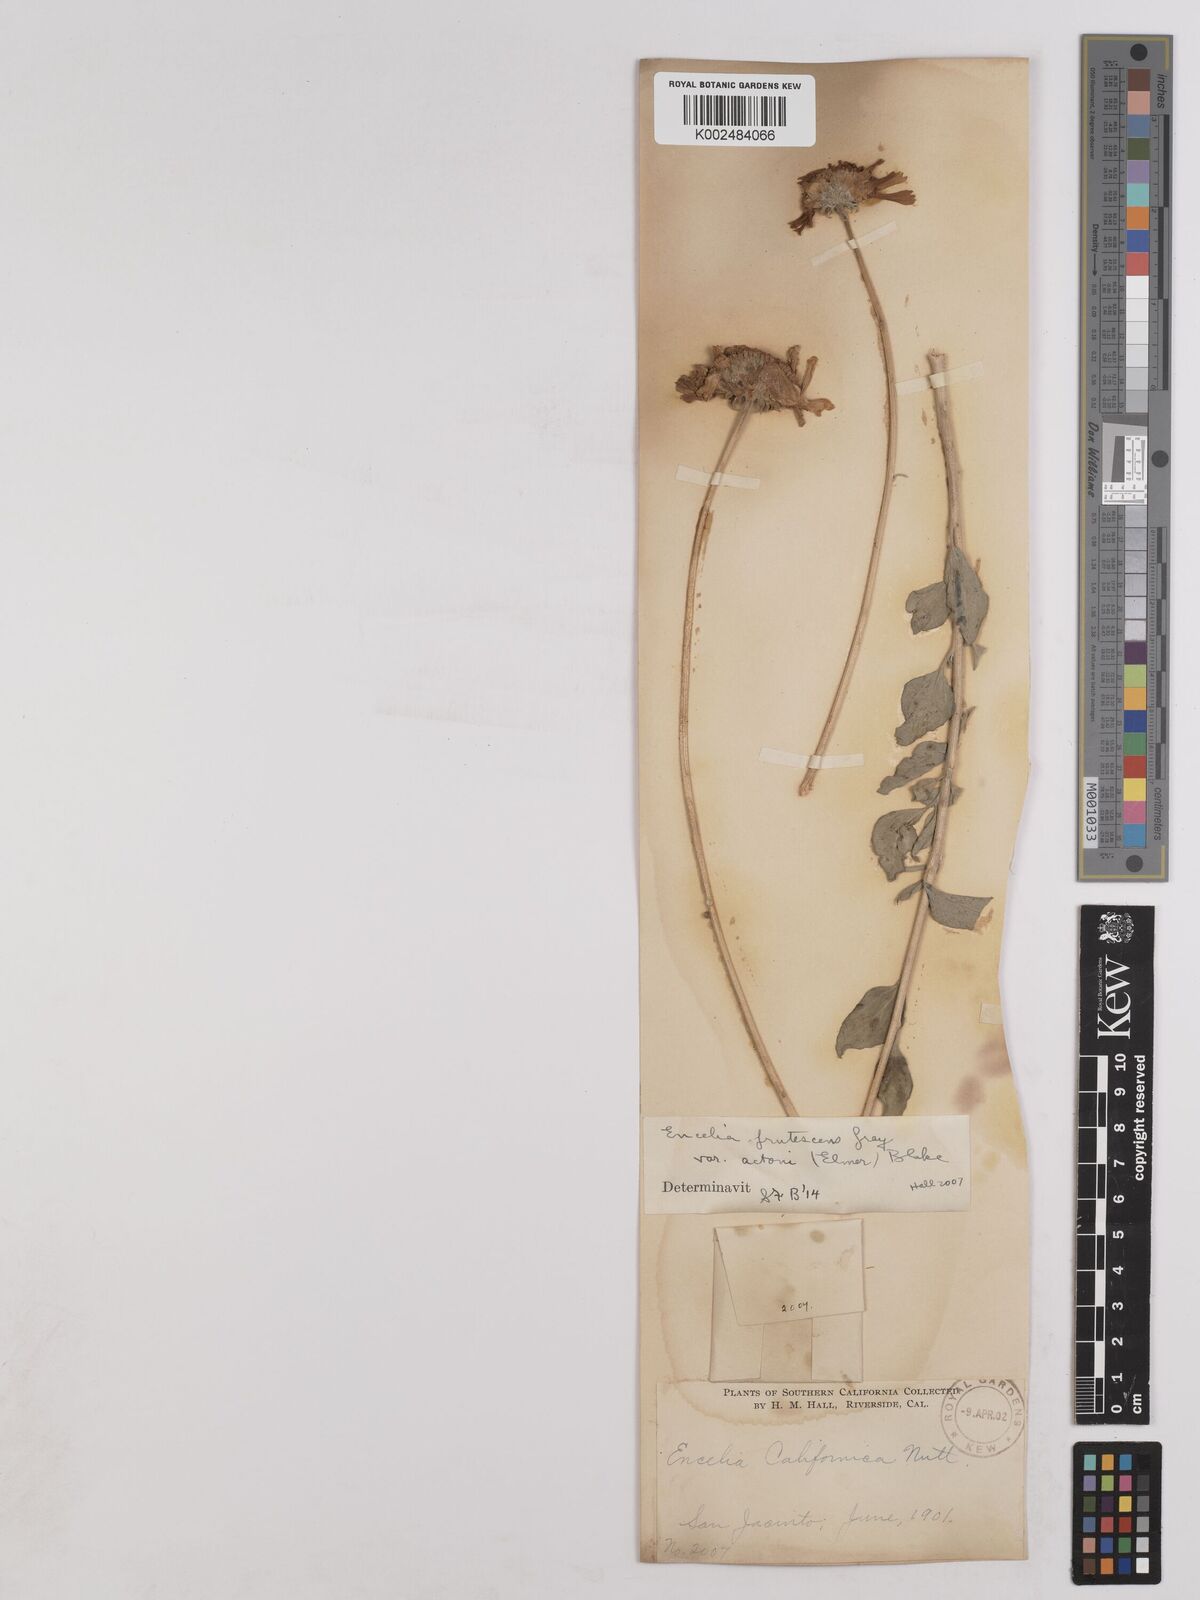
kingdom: Plantae
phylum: Tracheophyta
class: Magnoliopsida
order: Asterales
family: Asteraceae
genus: Encelia
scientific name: Encelia actoni
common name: Acton encelia
